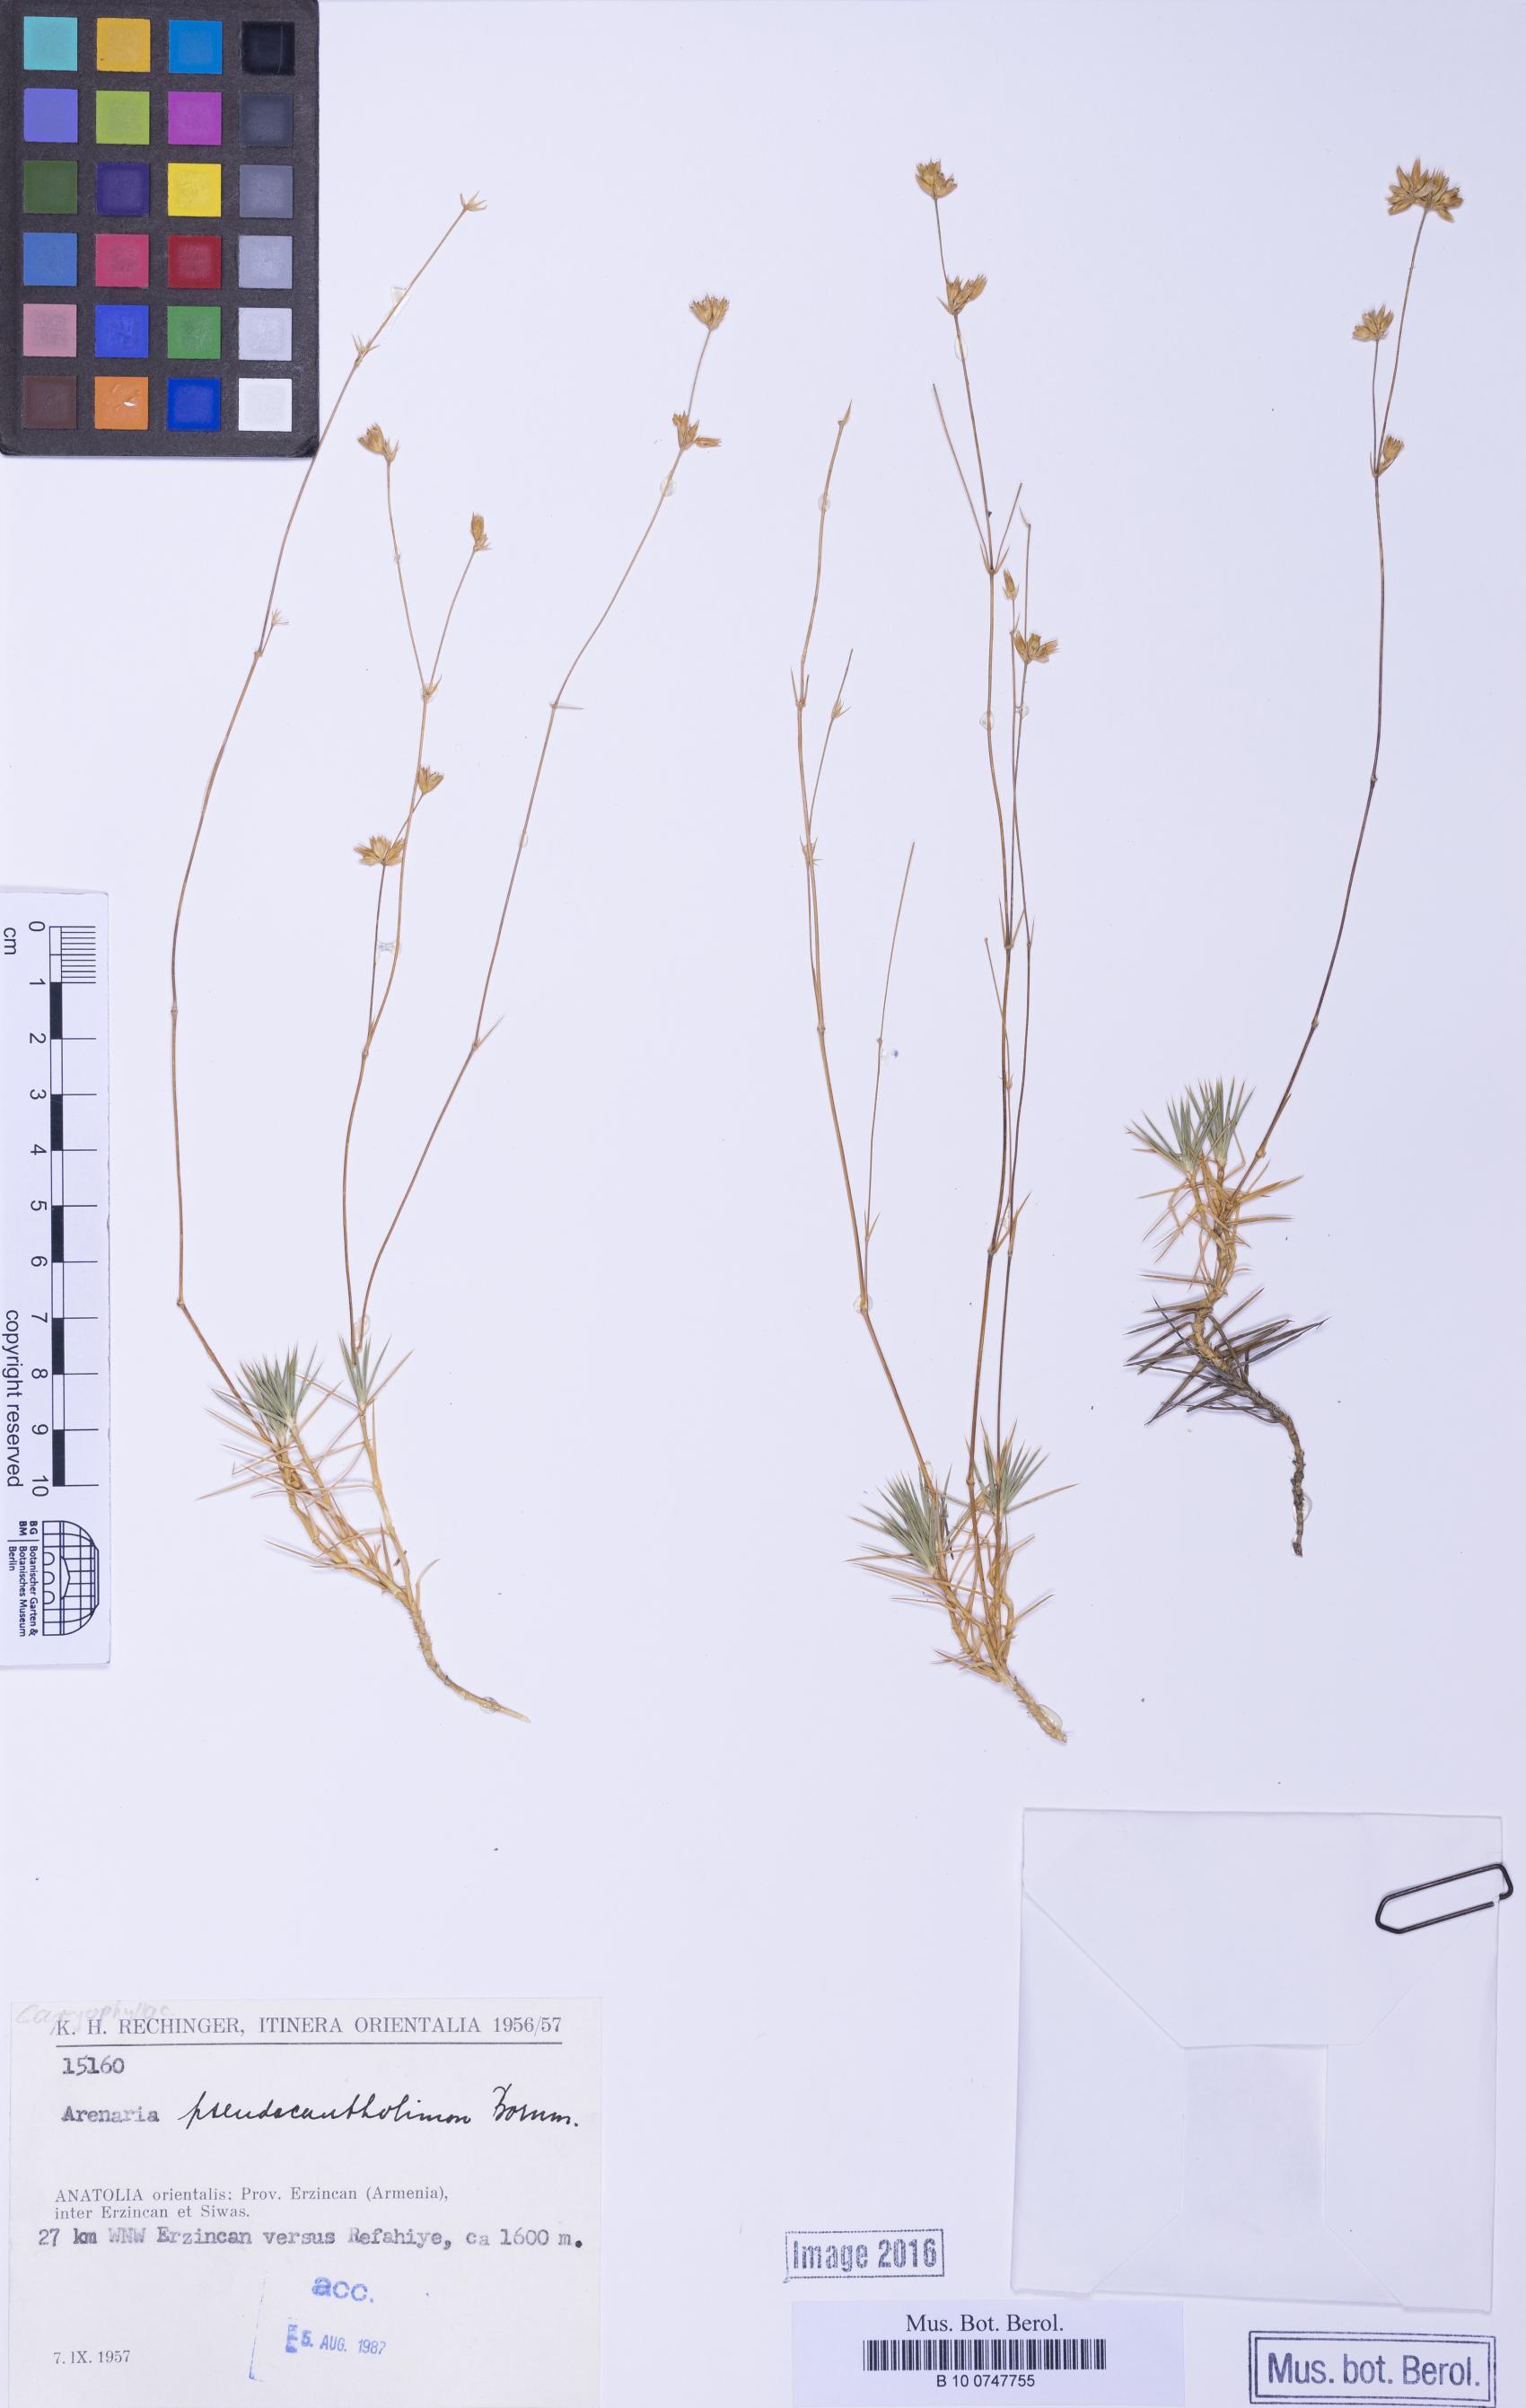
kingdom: Plantae
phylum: Tracheophyta
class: Magnoliopsida
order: Caryophyllales
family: Caryophyllaceae
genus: Eremogone
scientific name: Eremogone pseudacantholimon
